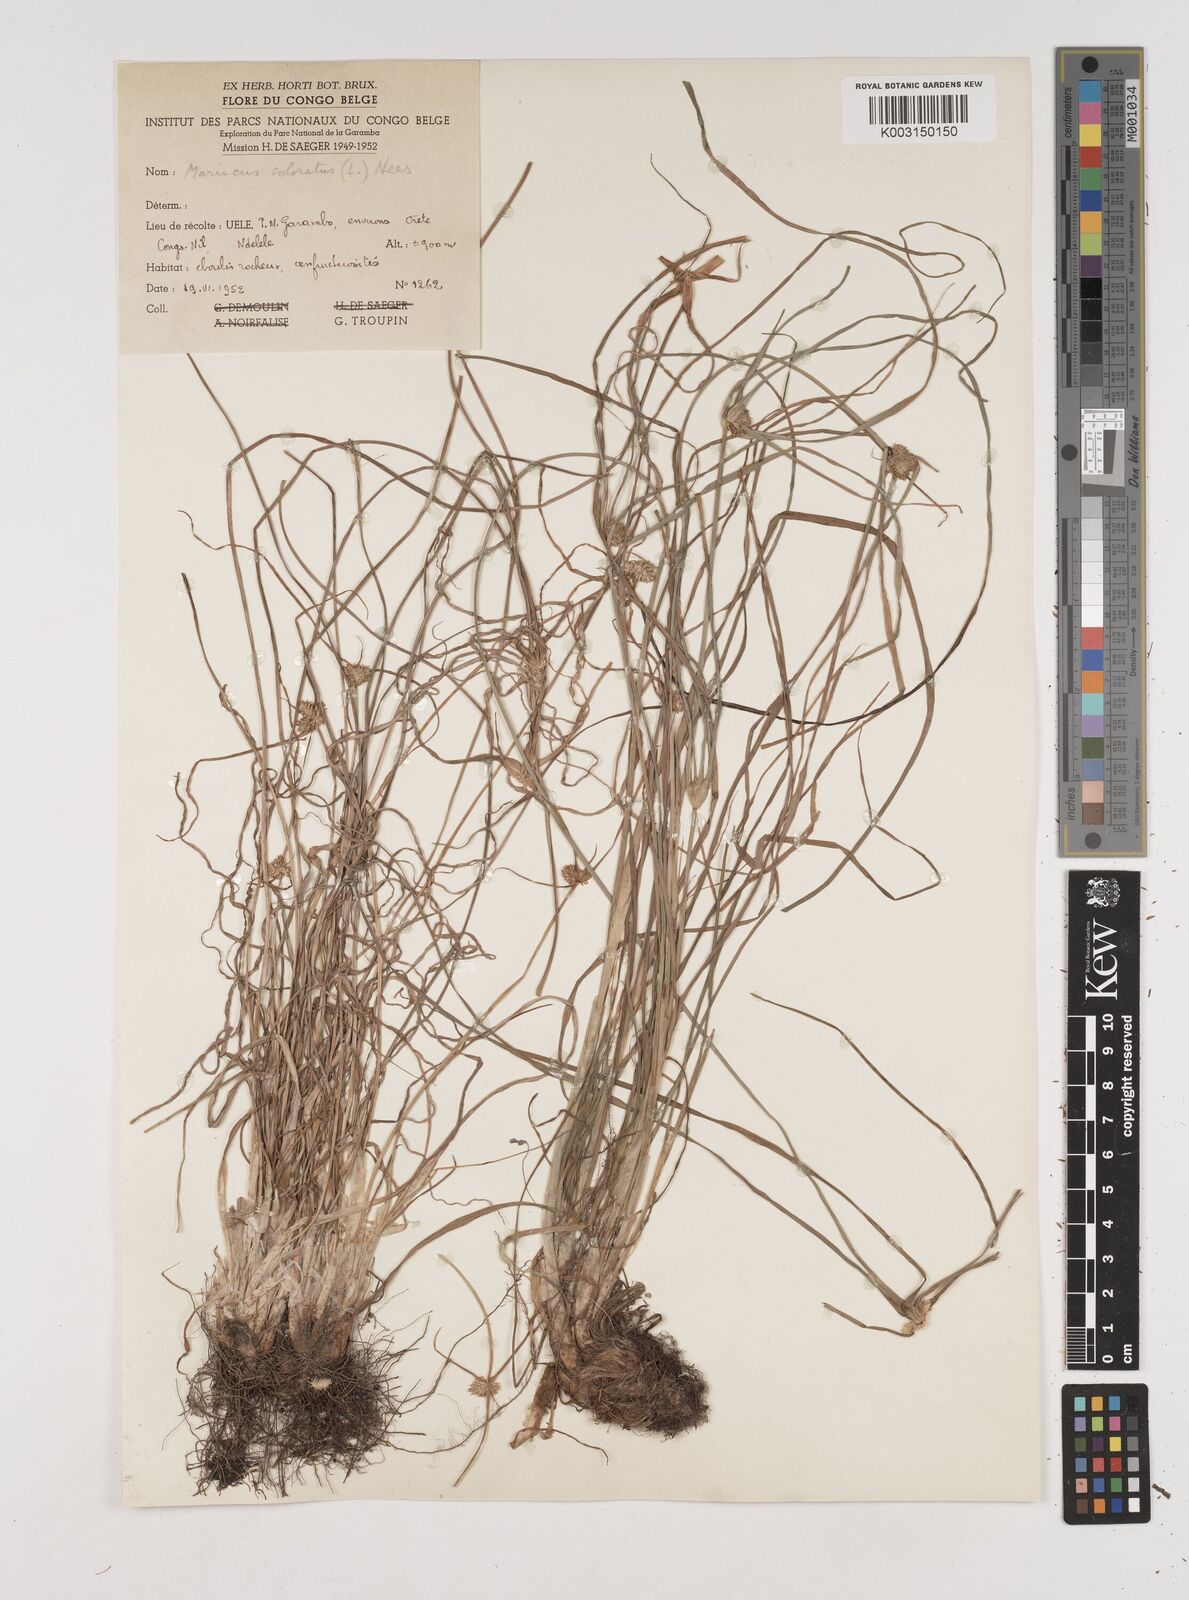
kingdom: Plantae
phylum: Tracheophyta
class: Liliopsida
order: Poales
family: Cyperaceae
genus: Cyperus
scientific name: Cyperus dubius
